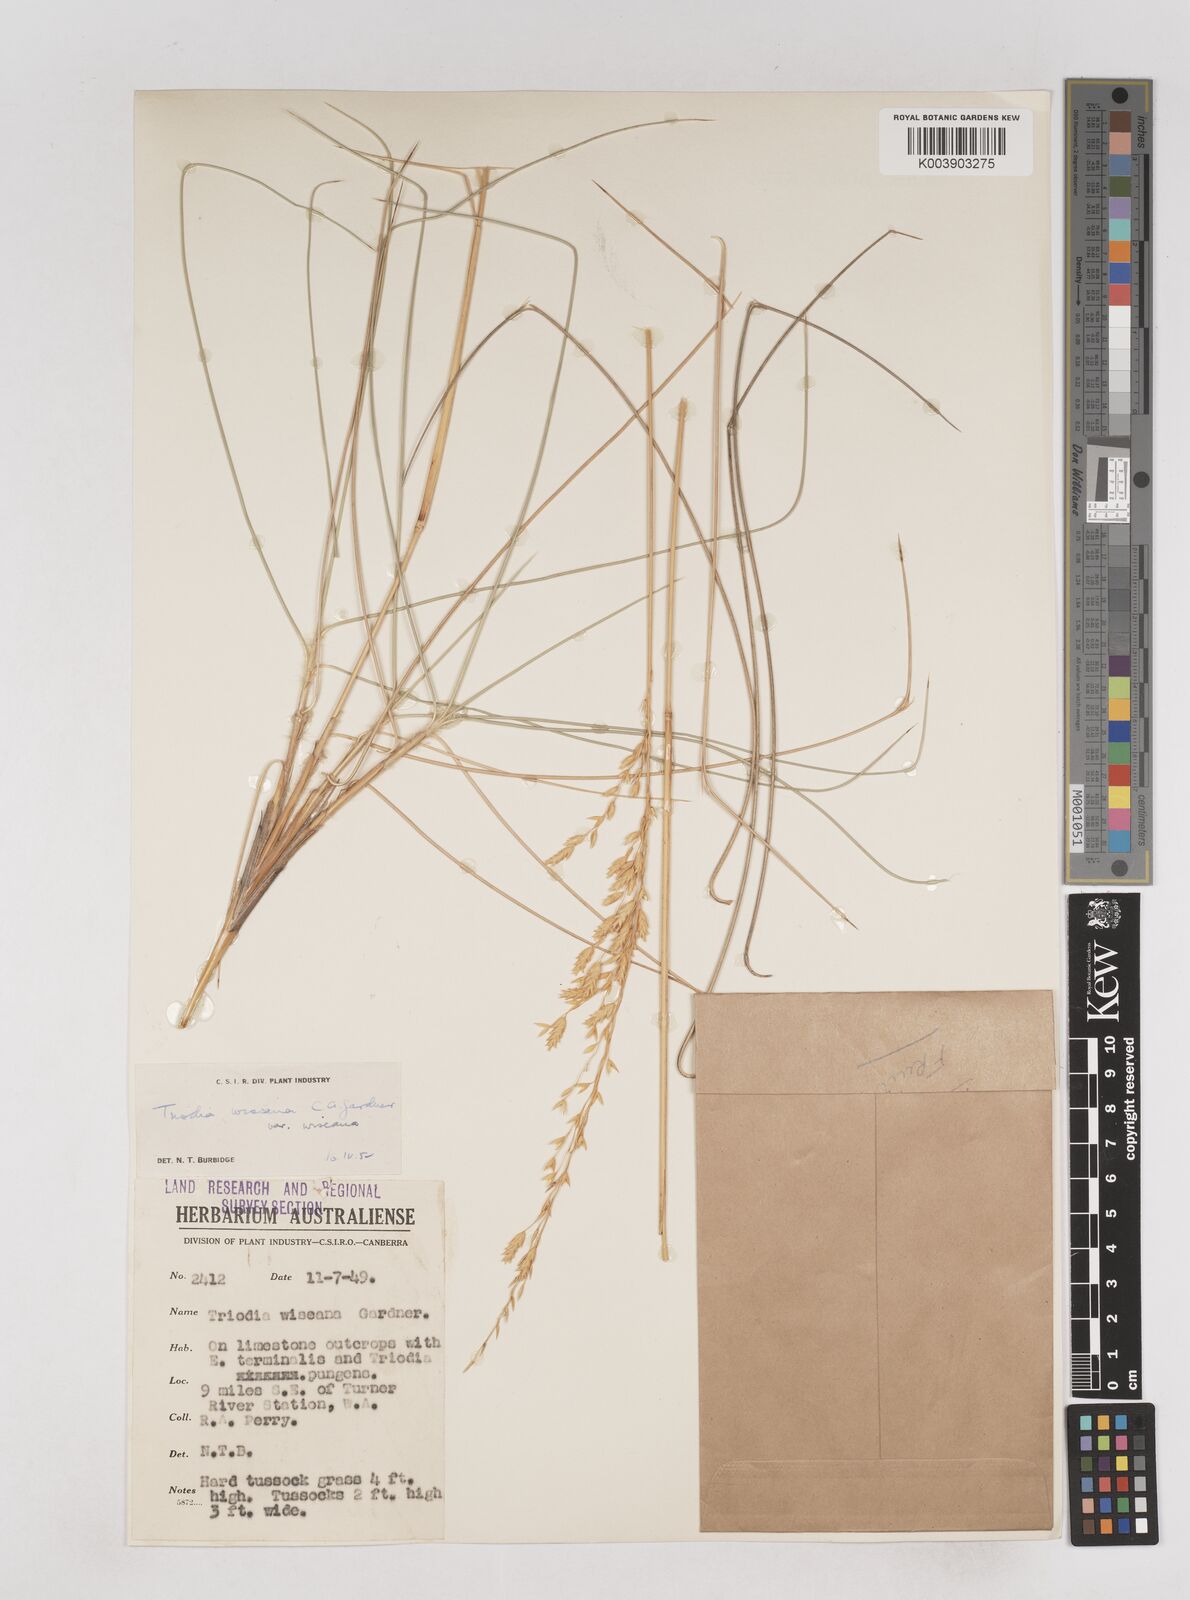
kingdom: Plantae
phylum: Tracheophyta
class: Liliopsida
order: Poales
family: Poaceae
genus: Triodia
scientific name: Triodia wiseana
